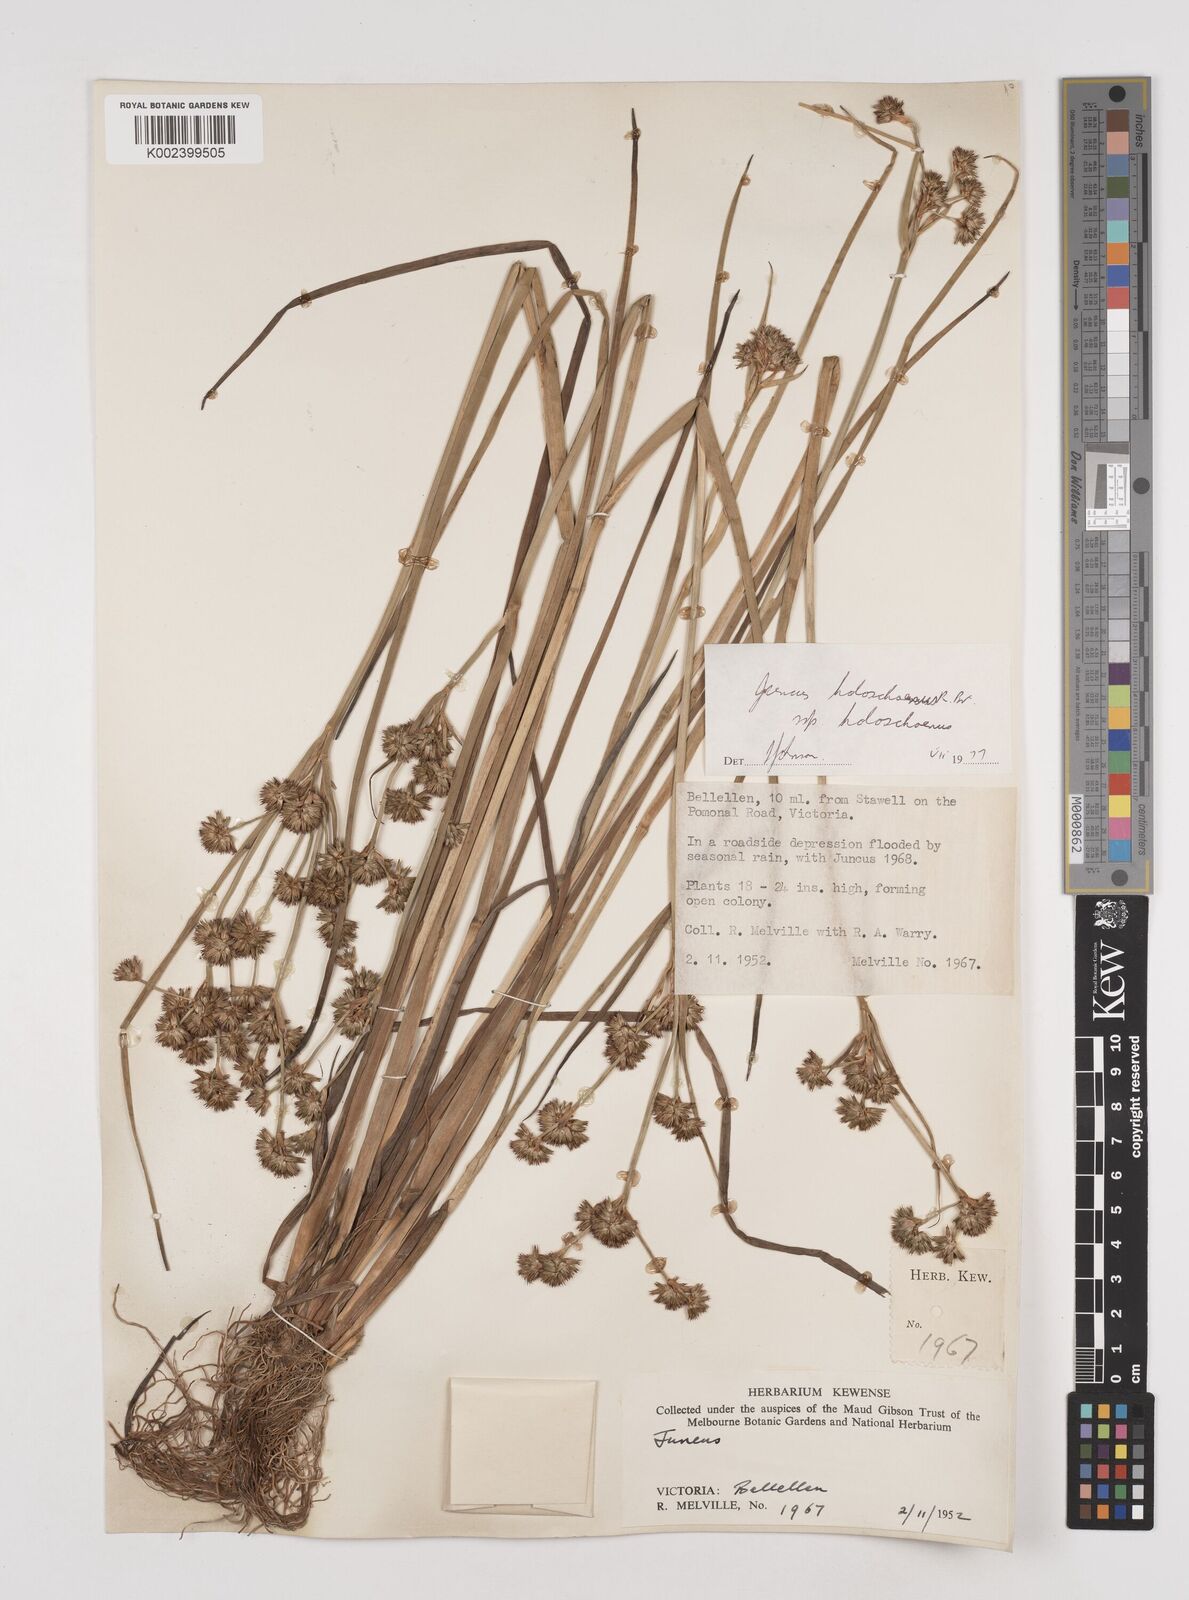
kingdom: Plantae
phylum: Tracheophyta
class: Liliopsida
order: Poales
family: Juncaceae
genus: Juncus
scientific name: Juncus holoschoenus
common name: Joint-leaf rush
